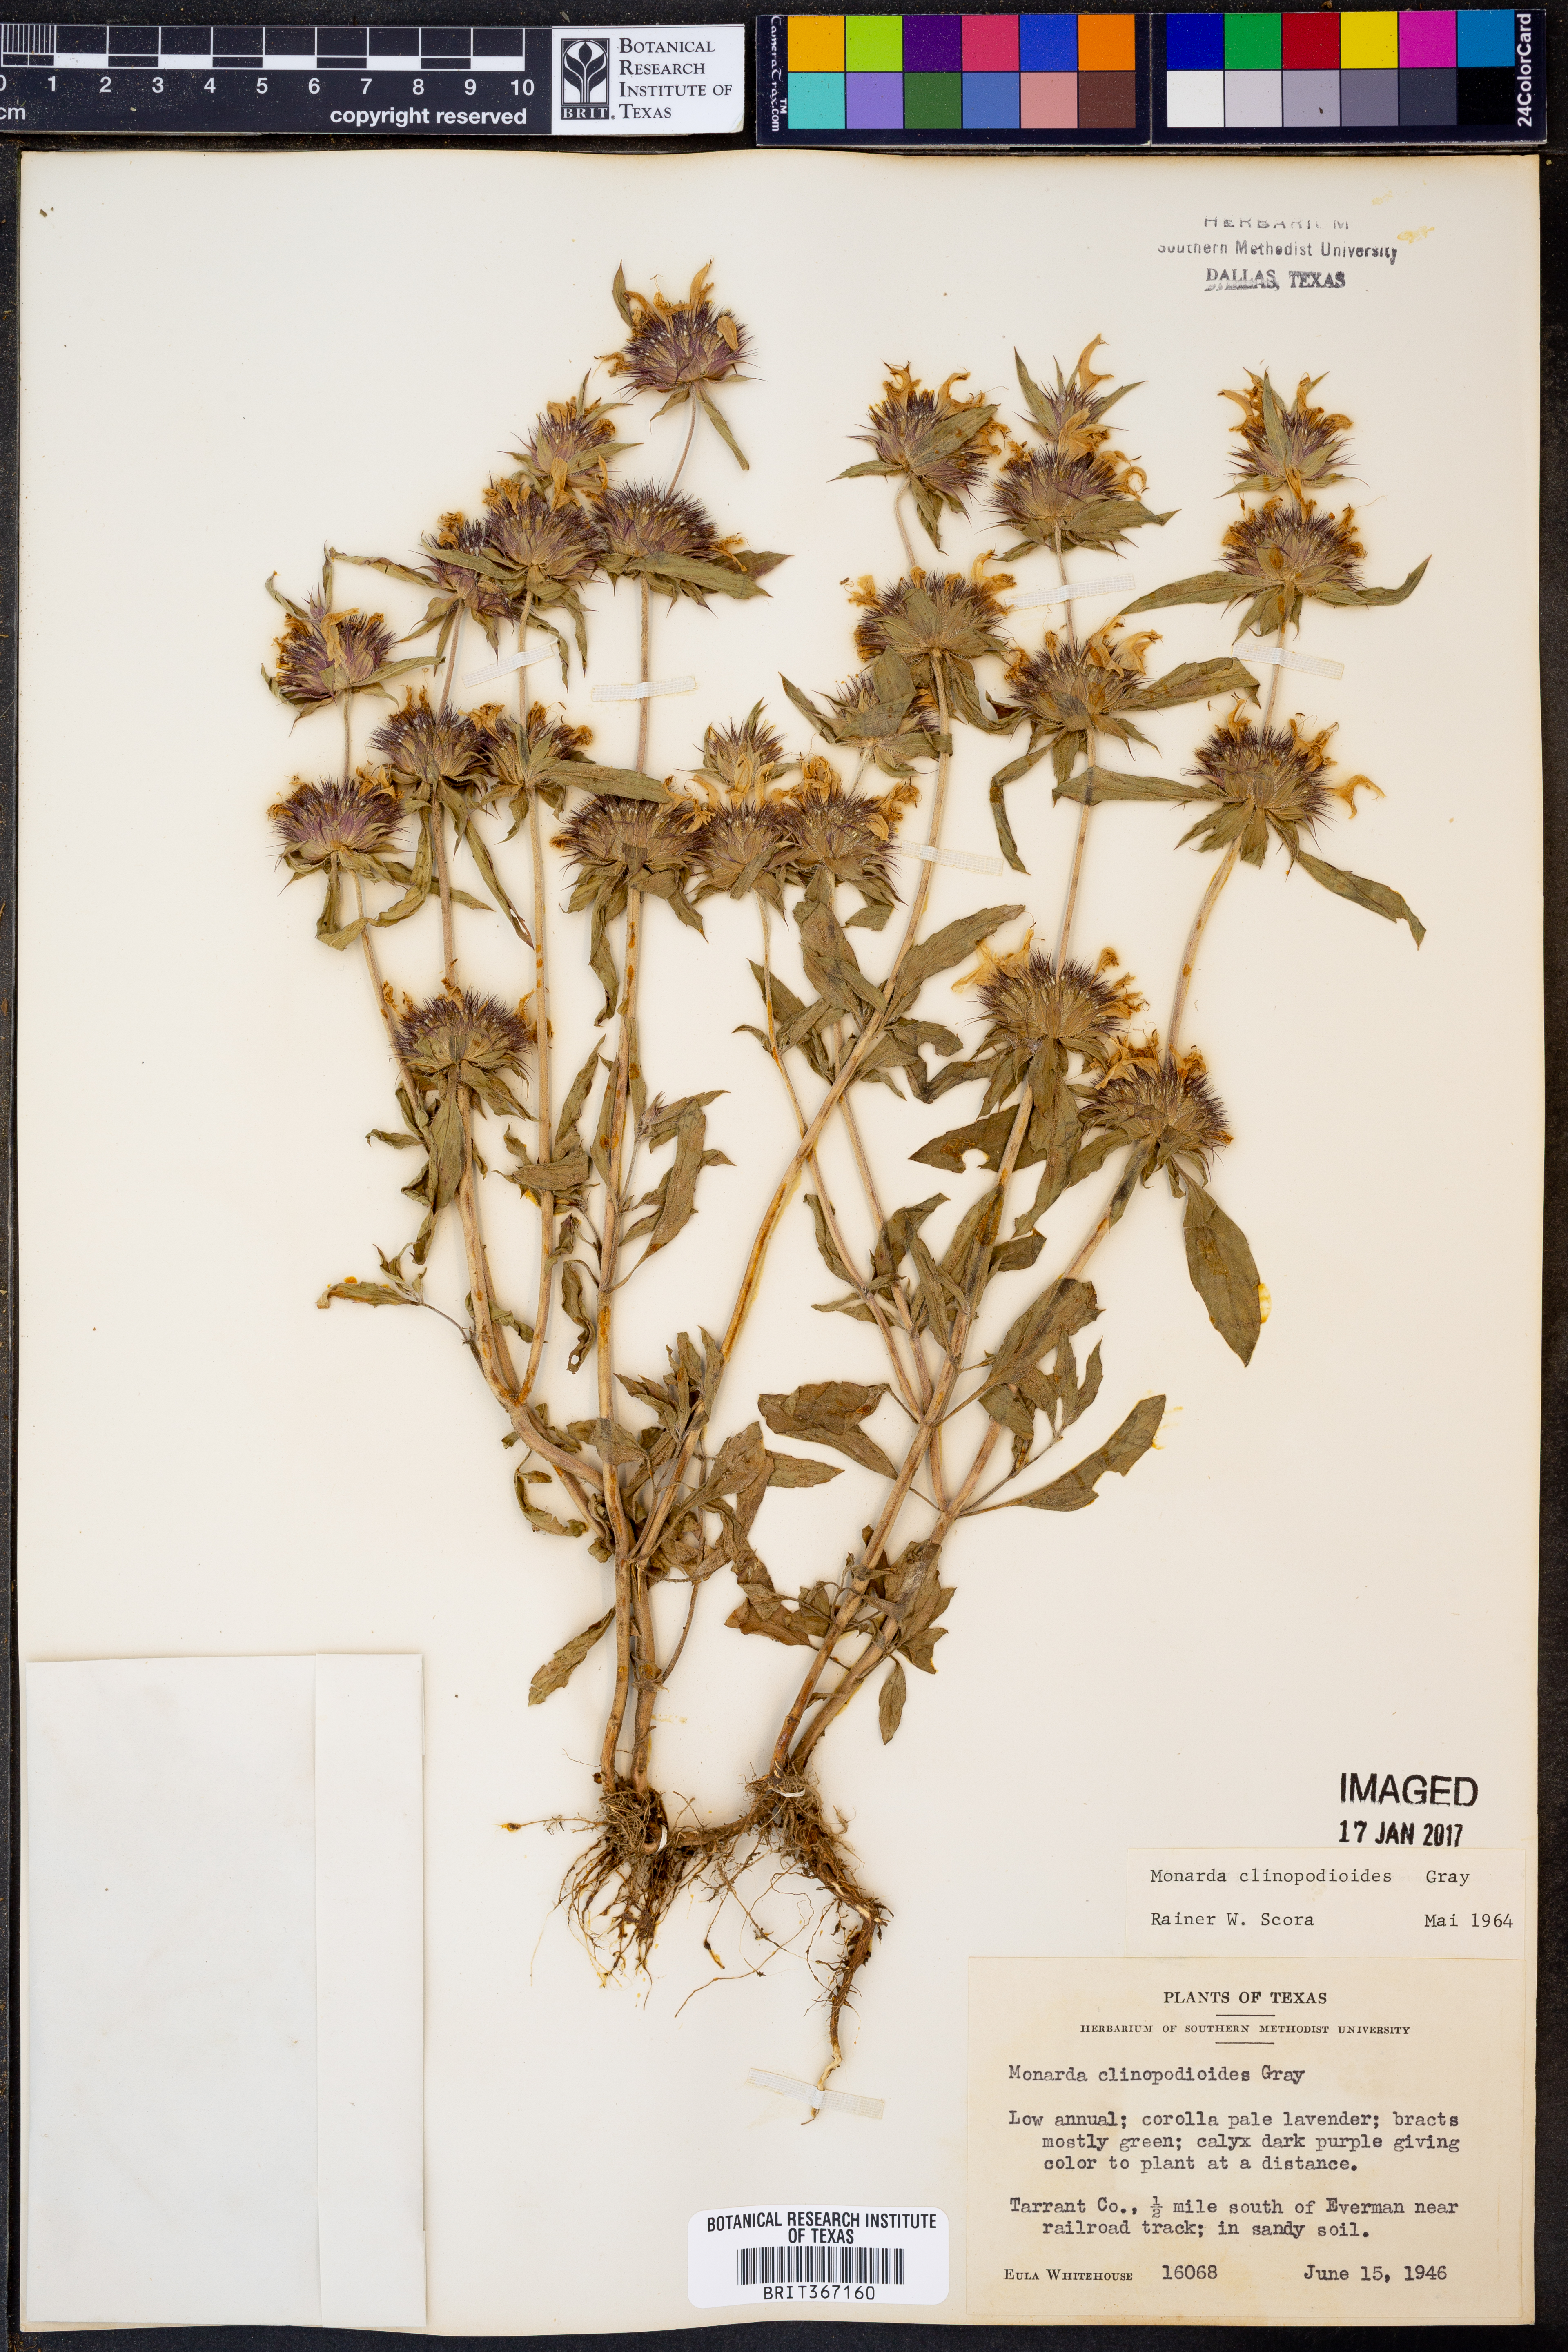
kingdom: Plantae
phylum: Tracheophyta
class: Magnoliopsida
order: Lamiales
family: Lamiaceae
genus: Monarda
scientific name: Monarda clinopodioides
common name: Basil beebalm
